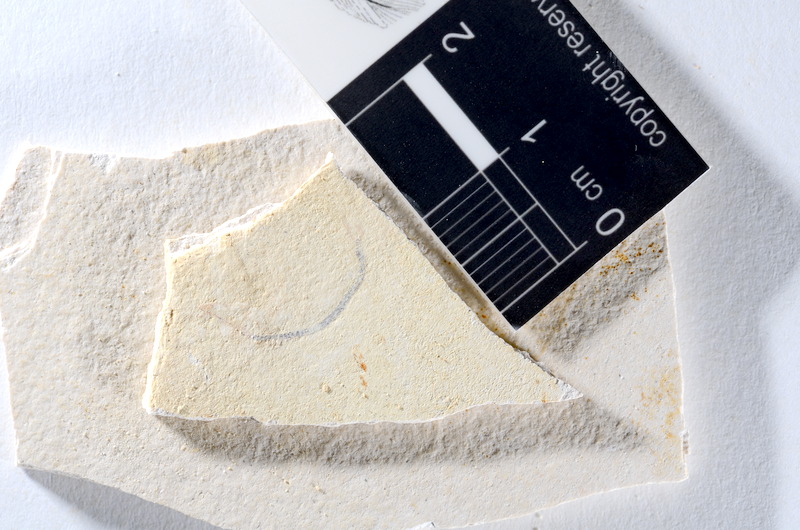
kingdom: Animalia
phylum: Chordata
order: Salmoniformes
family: Orthogonikleithridae
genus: Orthogonikleithrus
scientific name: Orthogonikleithrus hoelli
